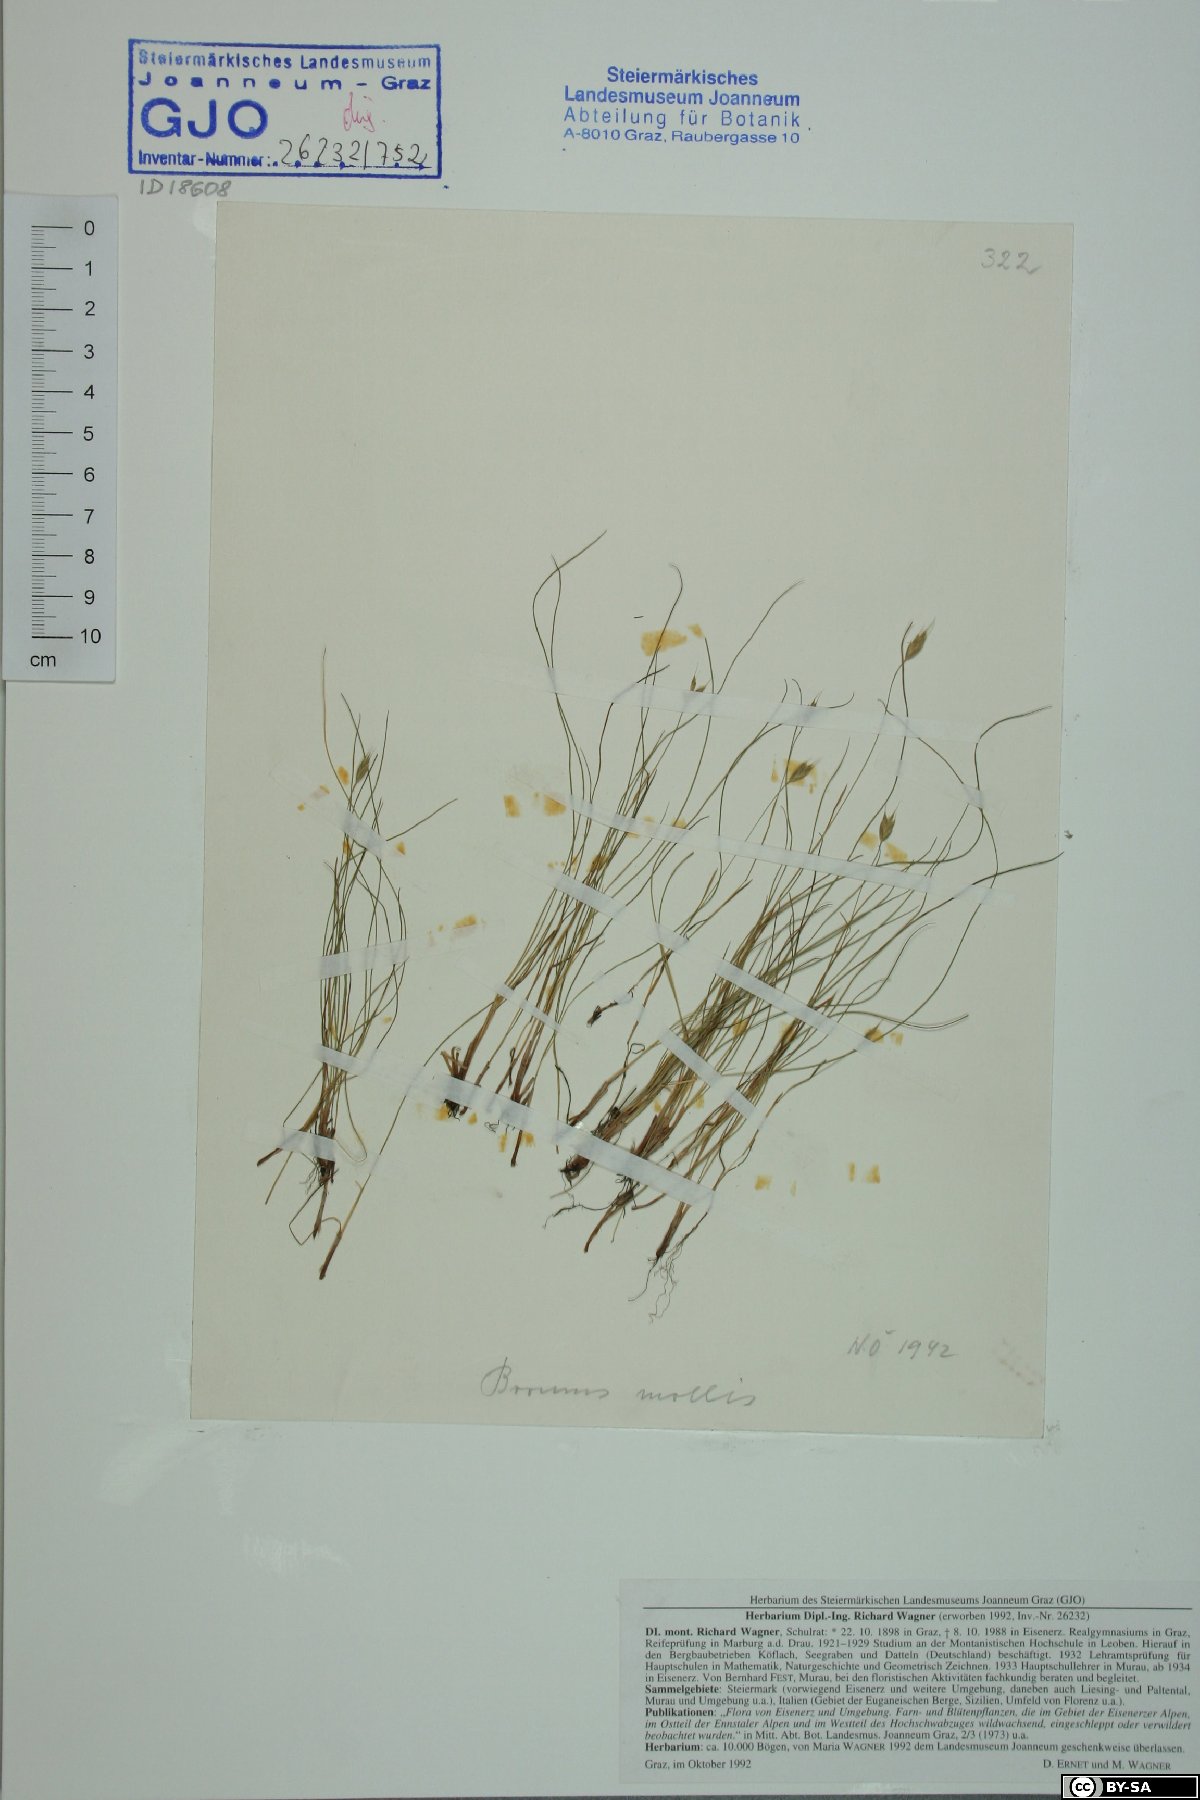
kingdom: Plantae
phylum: Tracheophyta
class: Liliopsida
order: Poales
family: Poaceae
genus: Bromus
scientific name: Bromus hordeaceus
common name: Soft brome
